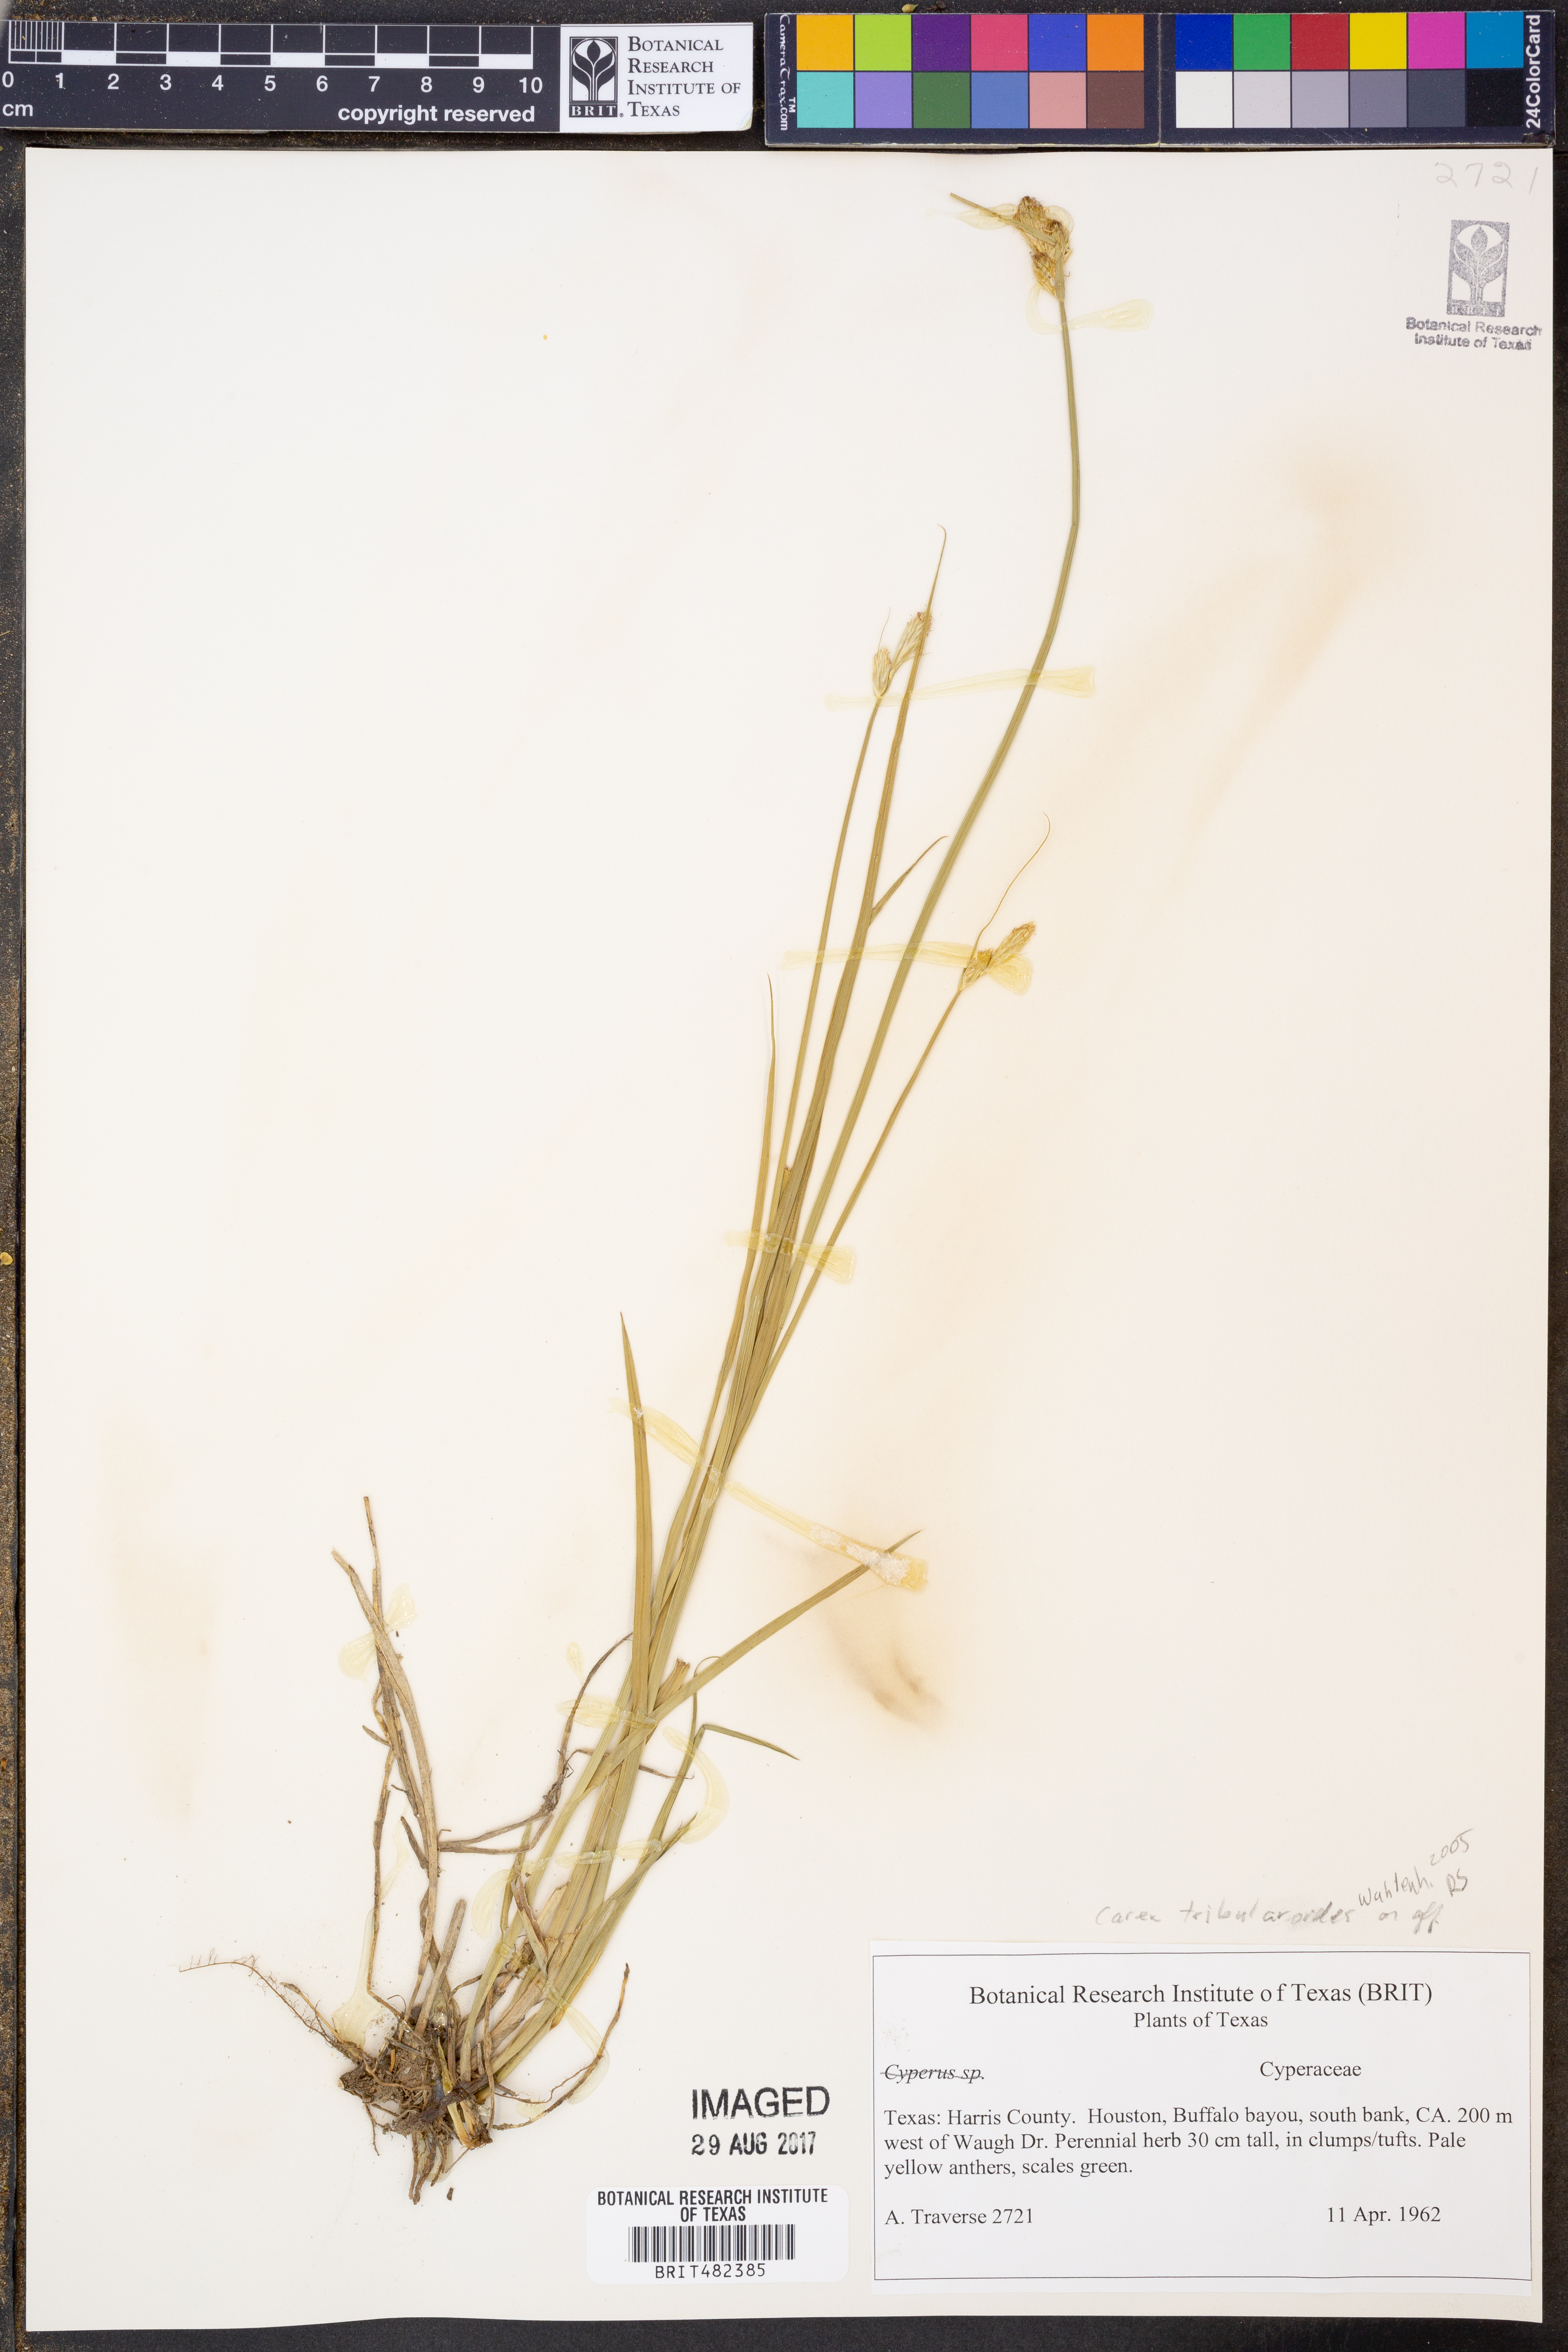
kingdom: Plantae
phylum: Tracheophyta
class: Liliopsida
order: Poales
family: Cyperaceae
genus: Carex
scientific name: Carex tribuloides
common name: Blunt broom sedge
